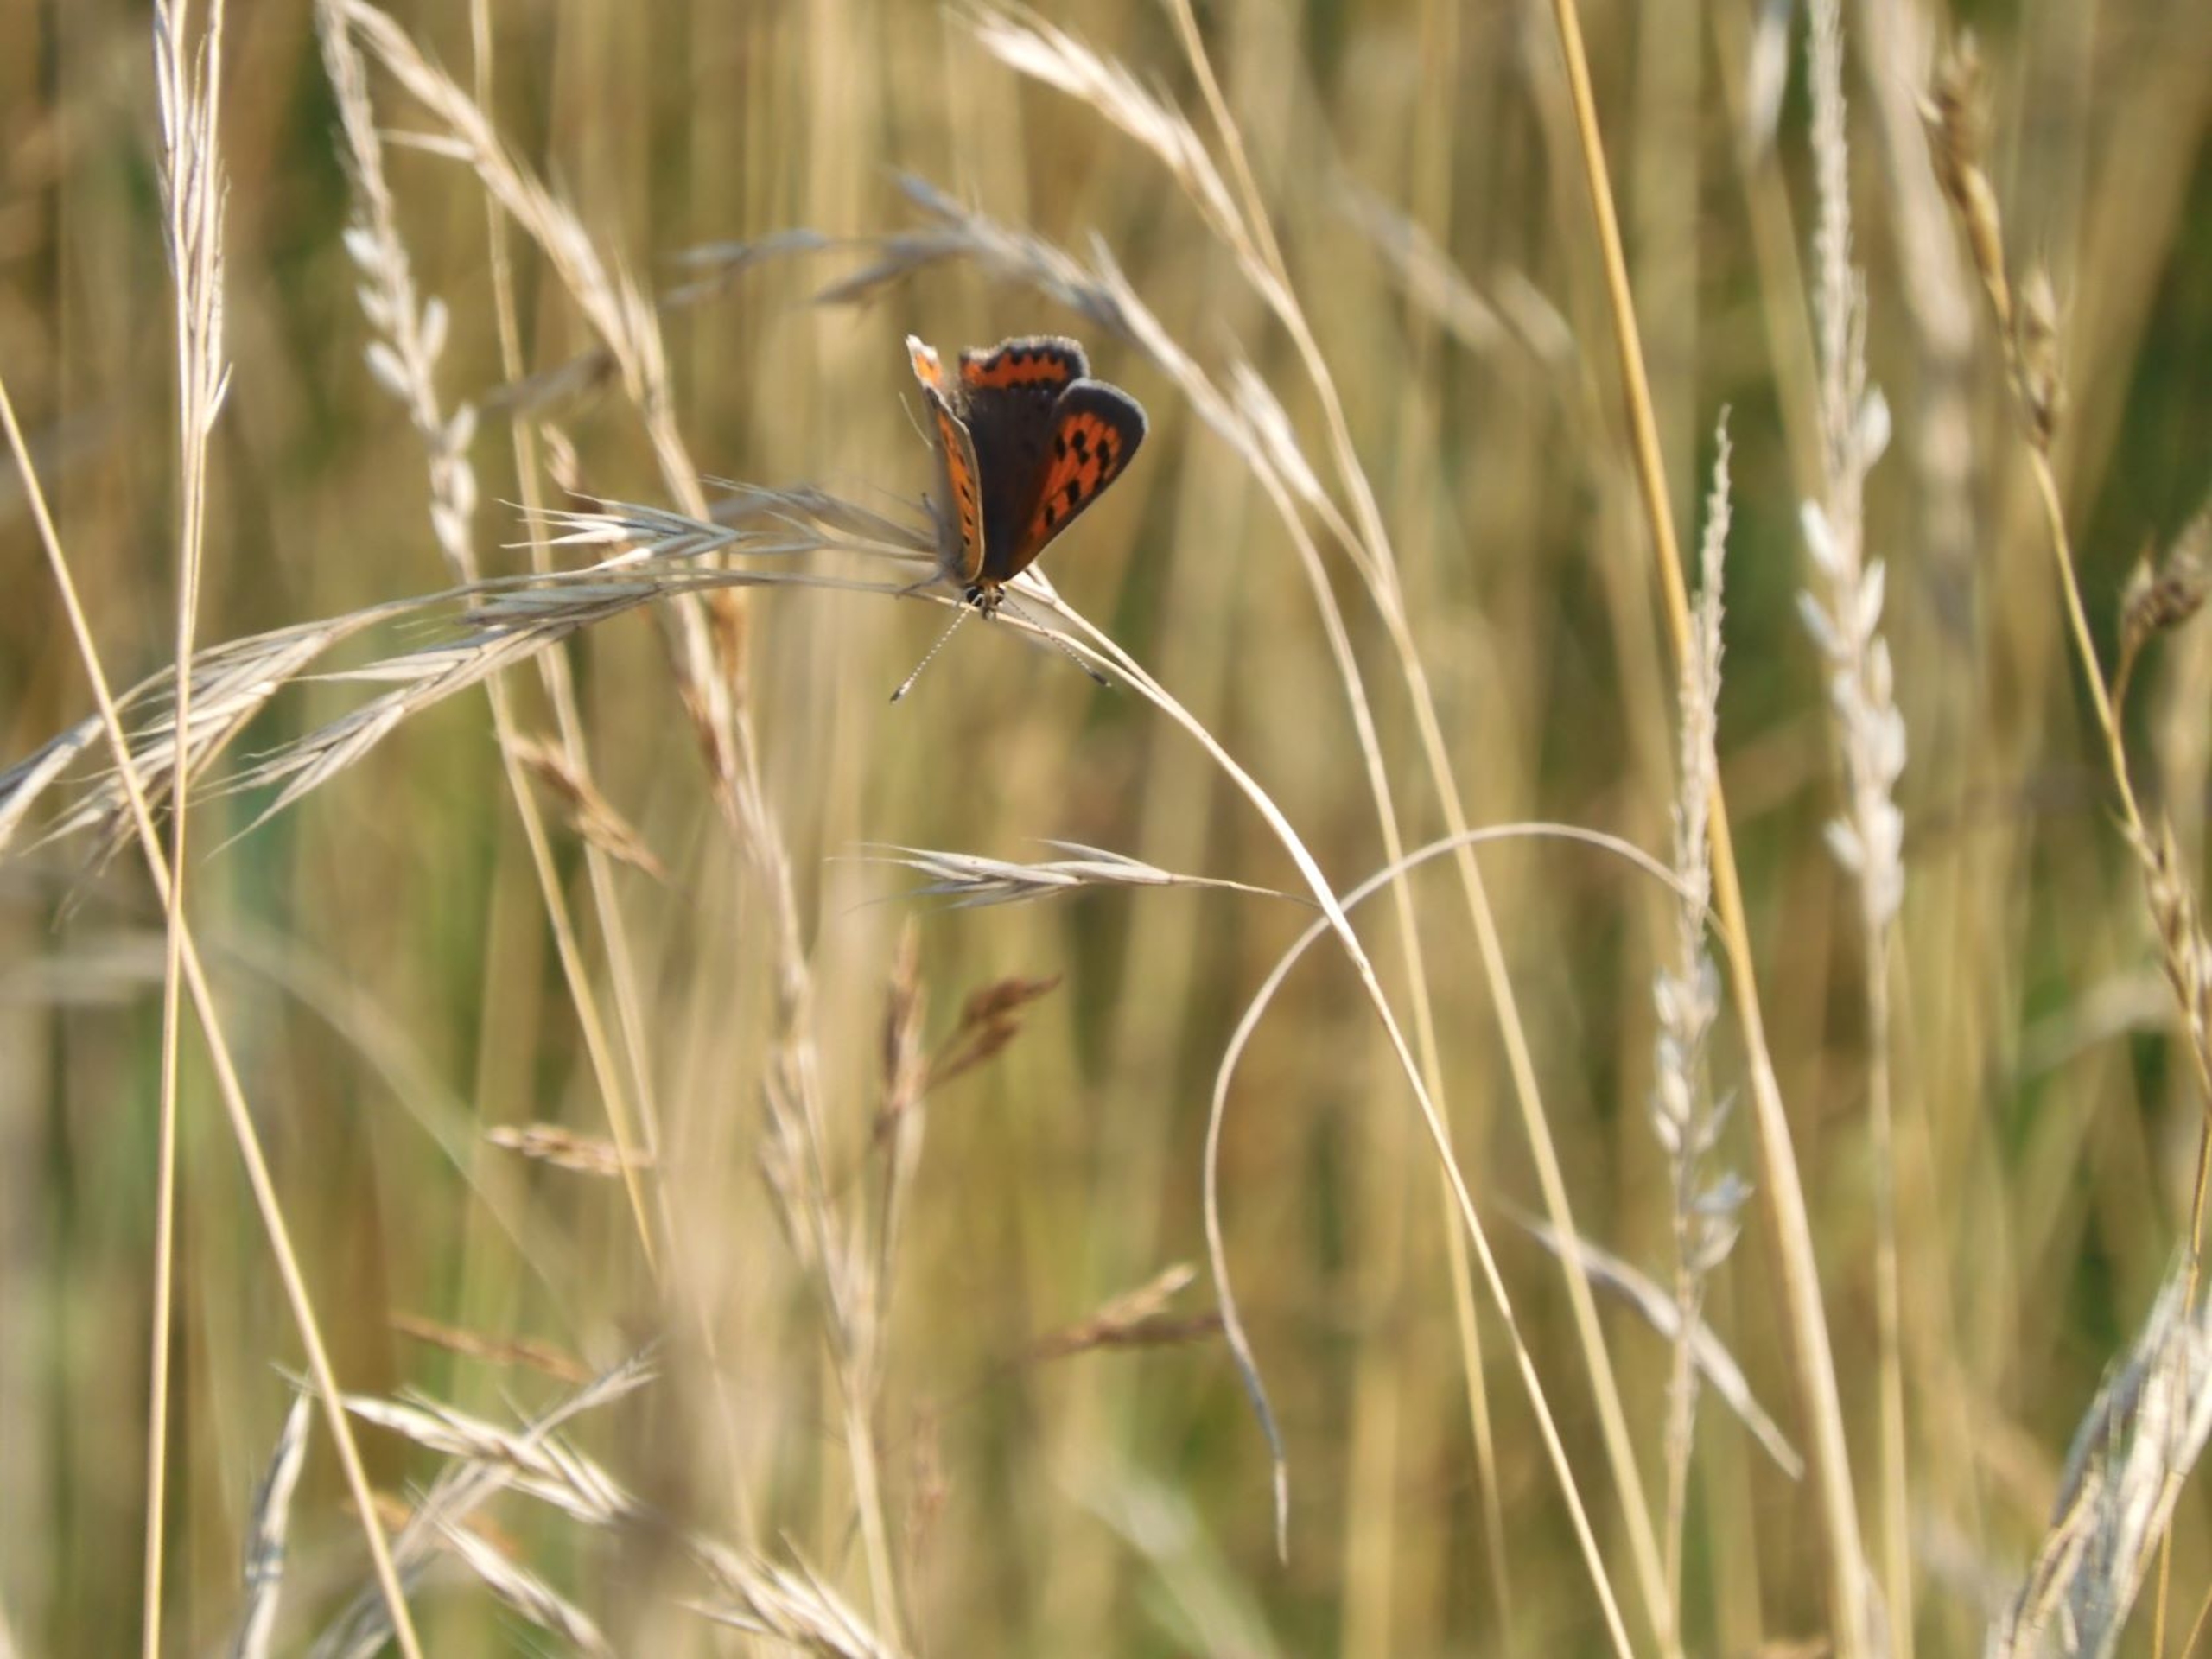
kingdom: Animalia
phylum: Arthropoda
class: Insecta
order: Lepidoptera
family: Lycaenidae
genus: Lycaena
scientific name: Lycaena phlaeas
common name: Lille ildfugl
